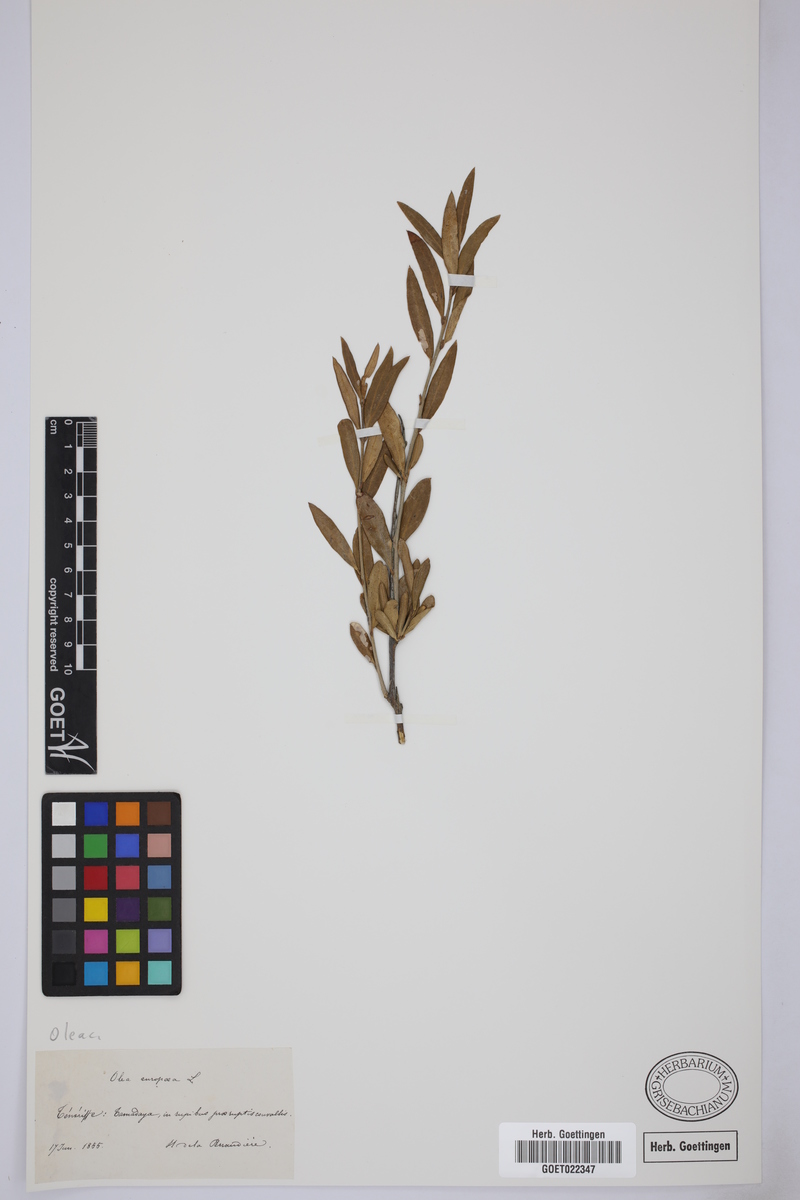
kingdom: Plantae
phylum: Tracheophyta
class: Magnoliopsida
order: Lamiales
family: Oleaceae
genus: Olea
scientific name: Olea europaea
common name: Olive
